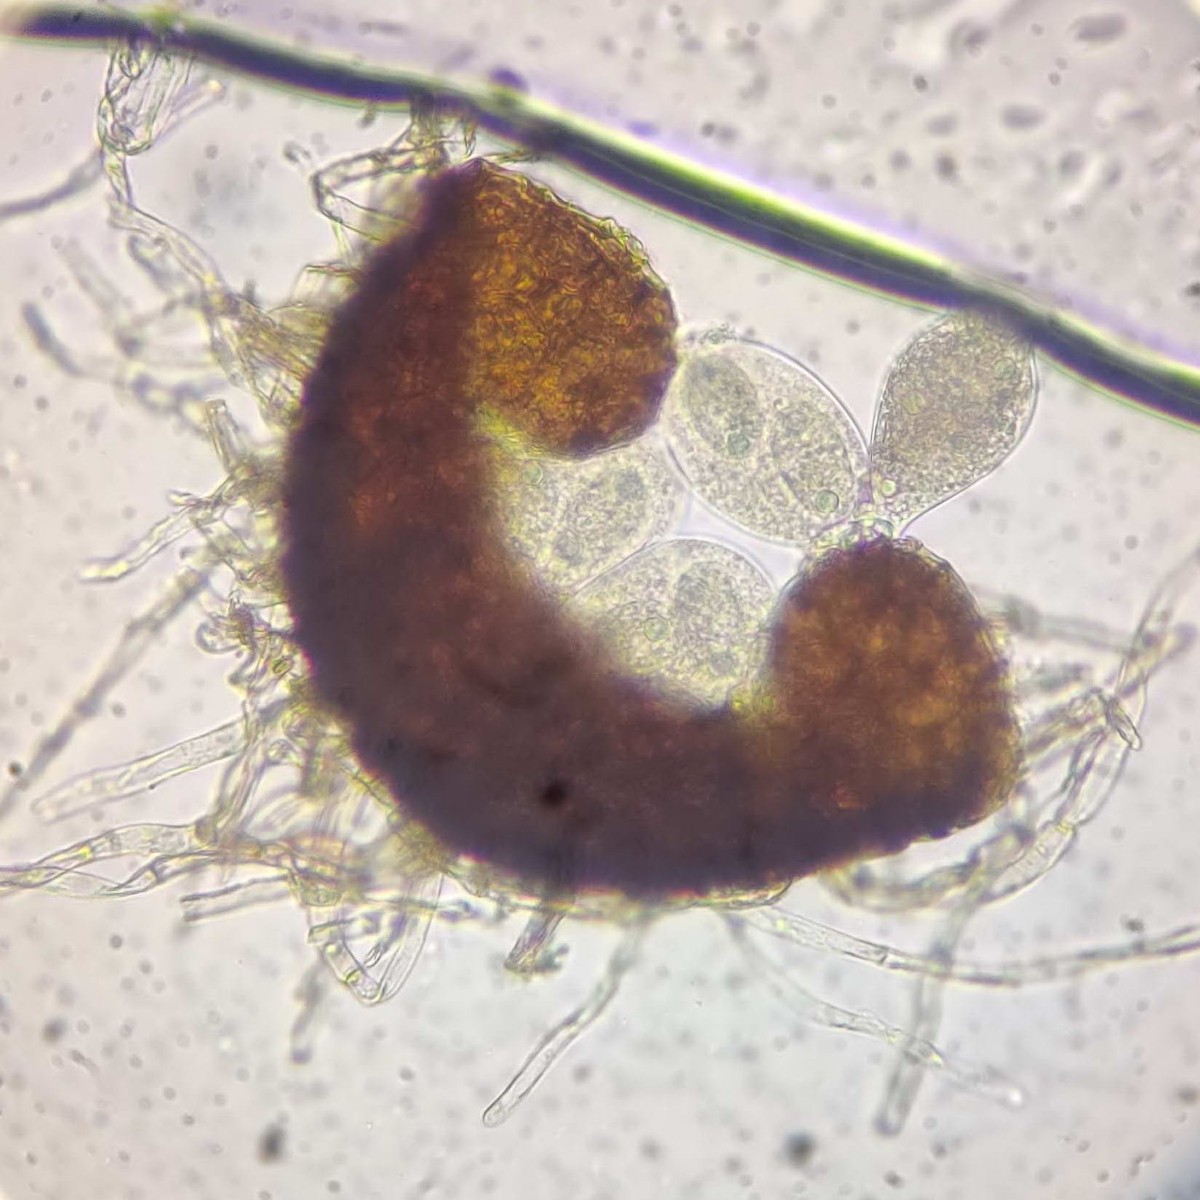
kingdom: Fungi
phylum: Ascomycota
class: Leotiomycetes
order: Helotiales
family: Erysiphaceae
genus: Golovinomyces
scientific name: Golovinomyces biocellatus
